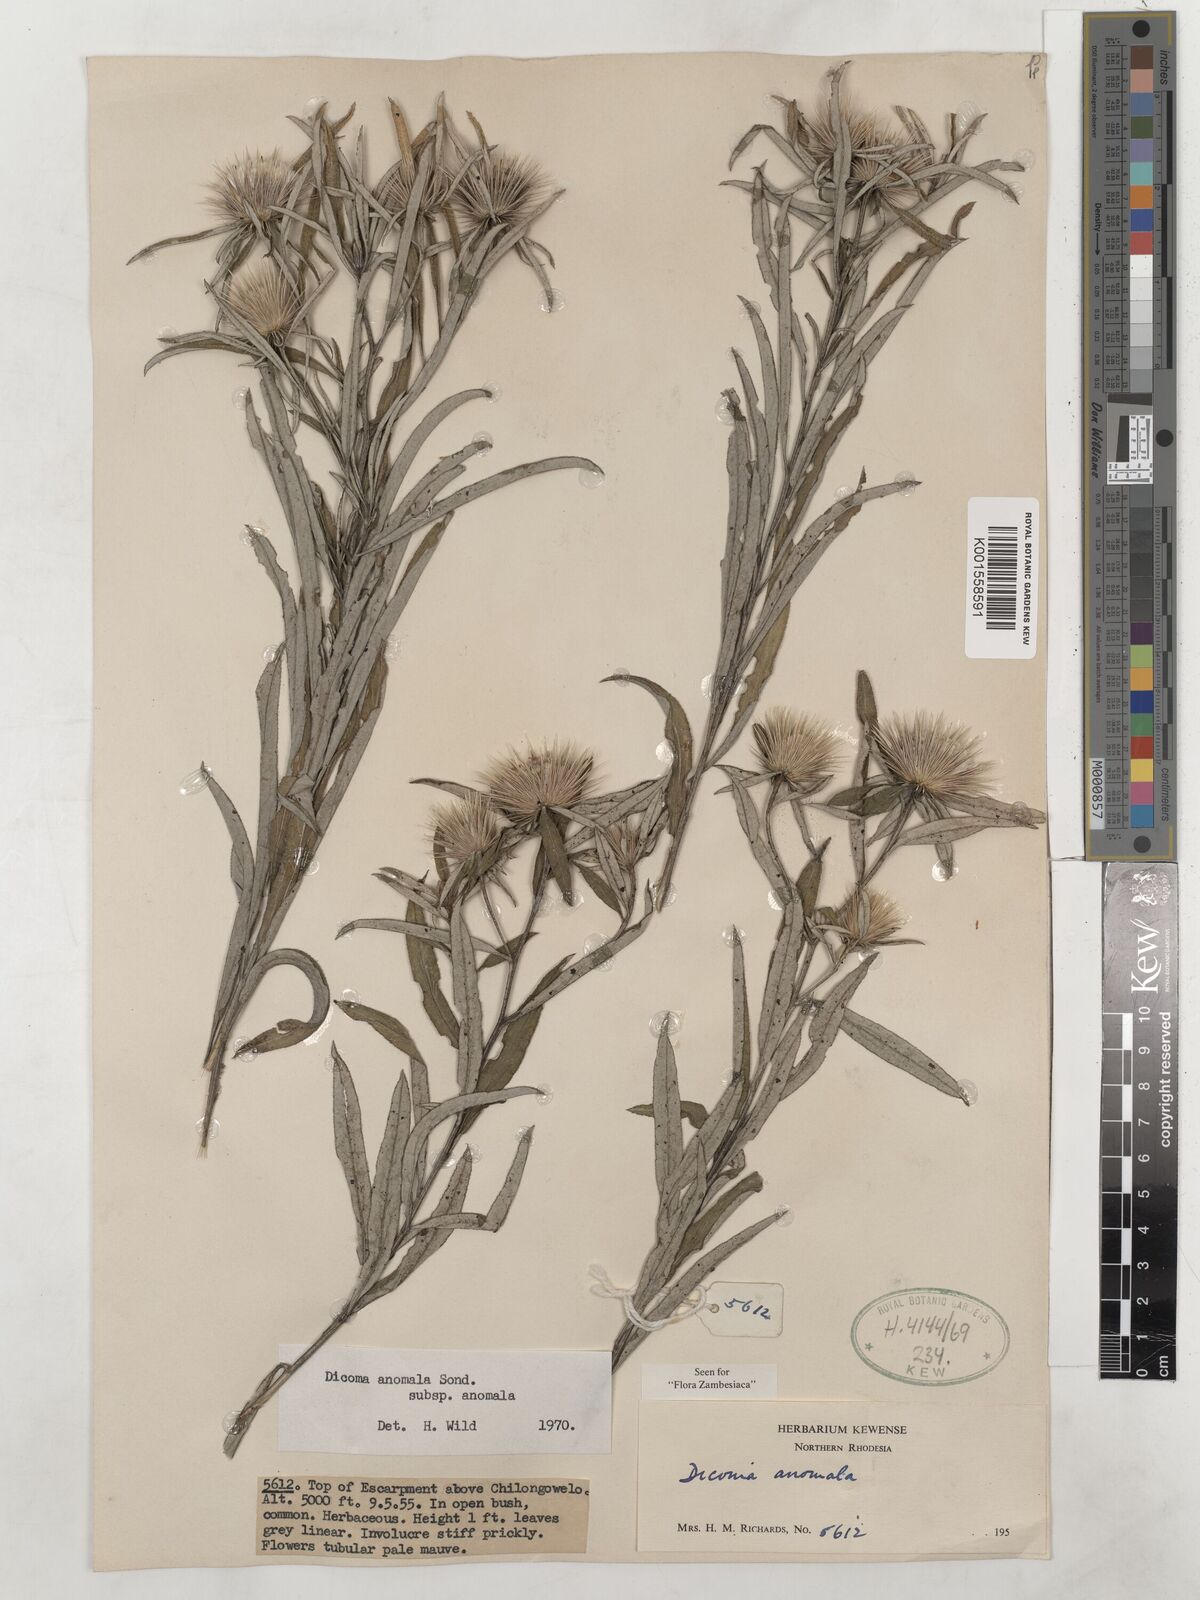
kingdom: Plantae
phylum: Tracheophyta
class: Magnoliopsida
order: Asterales
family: Asteraceae
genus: Dicoma
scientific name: Dicoma anomala
